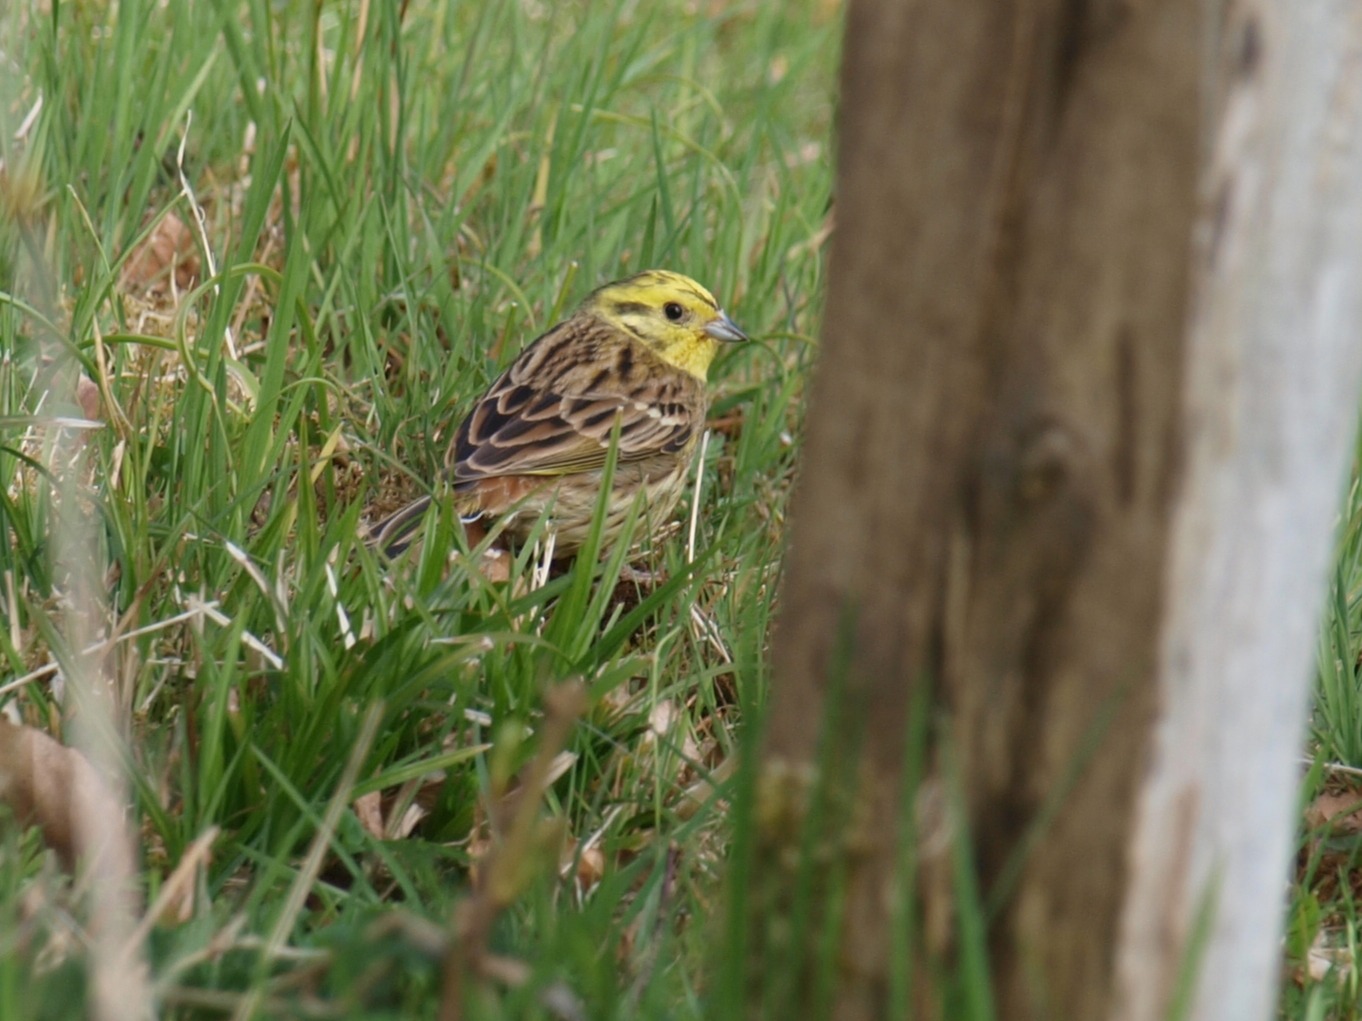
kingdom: Animalia
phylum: Chordata
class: Aves
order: Passeriformes
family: Emberizidae
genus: Emberiza
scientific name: Emberiza citrinella
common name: Gulspurv
